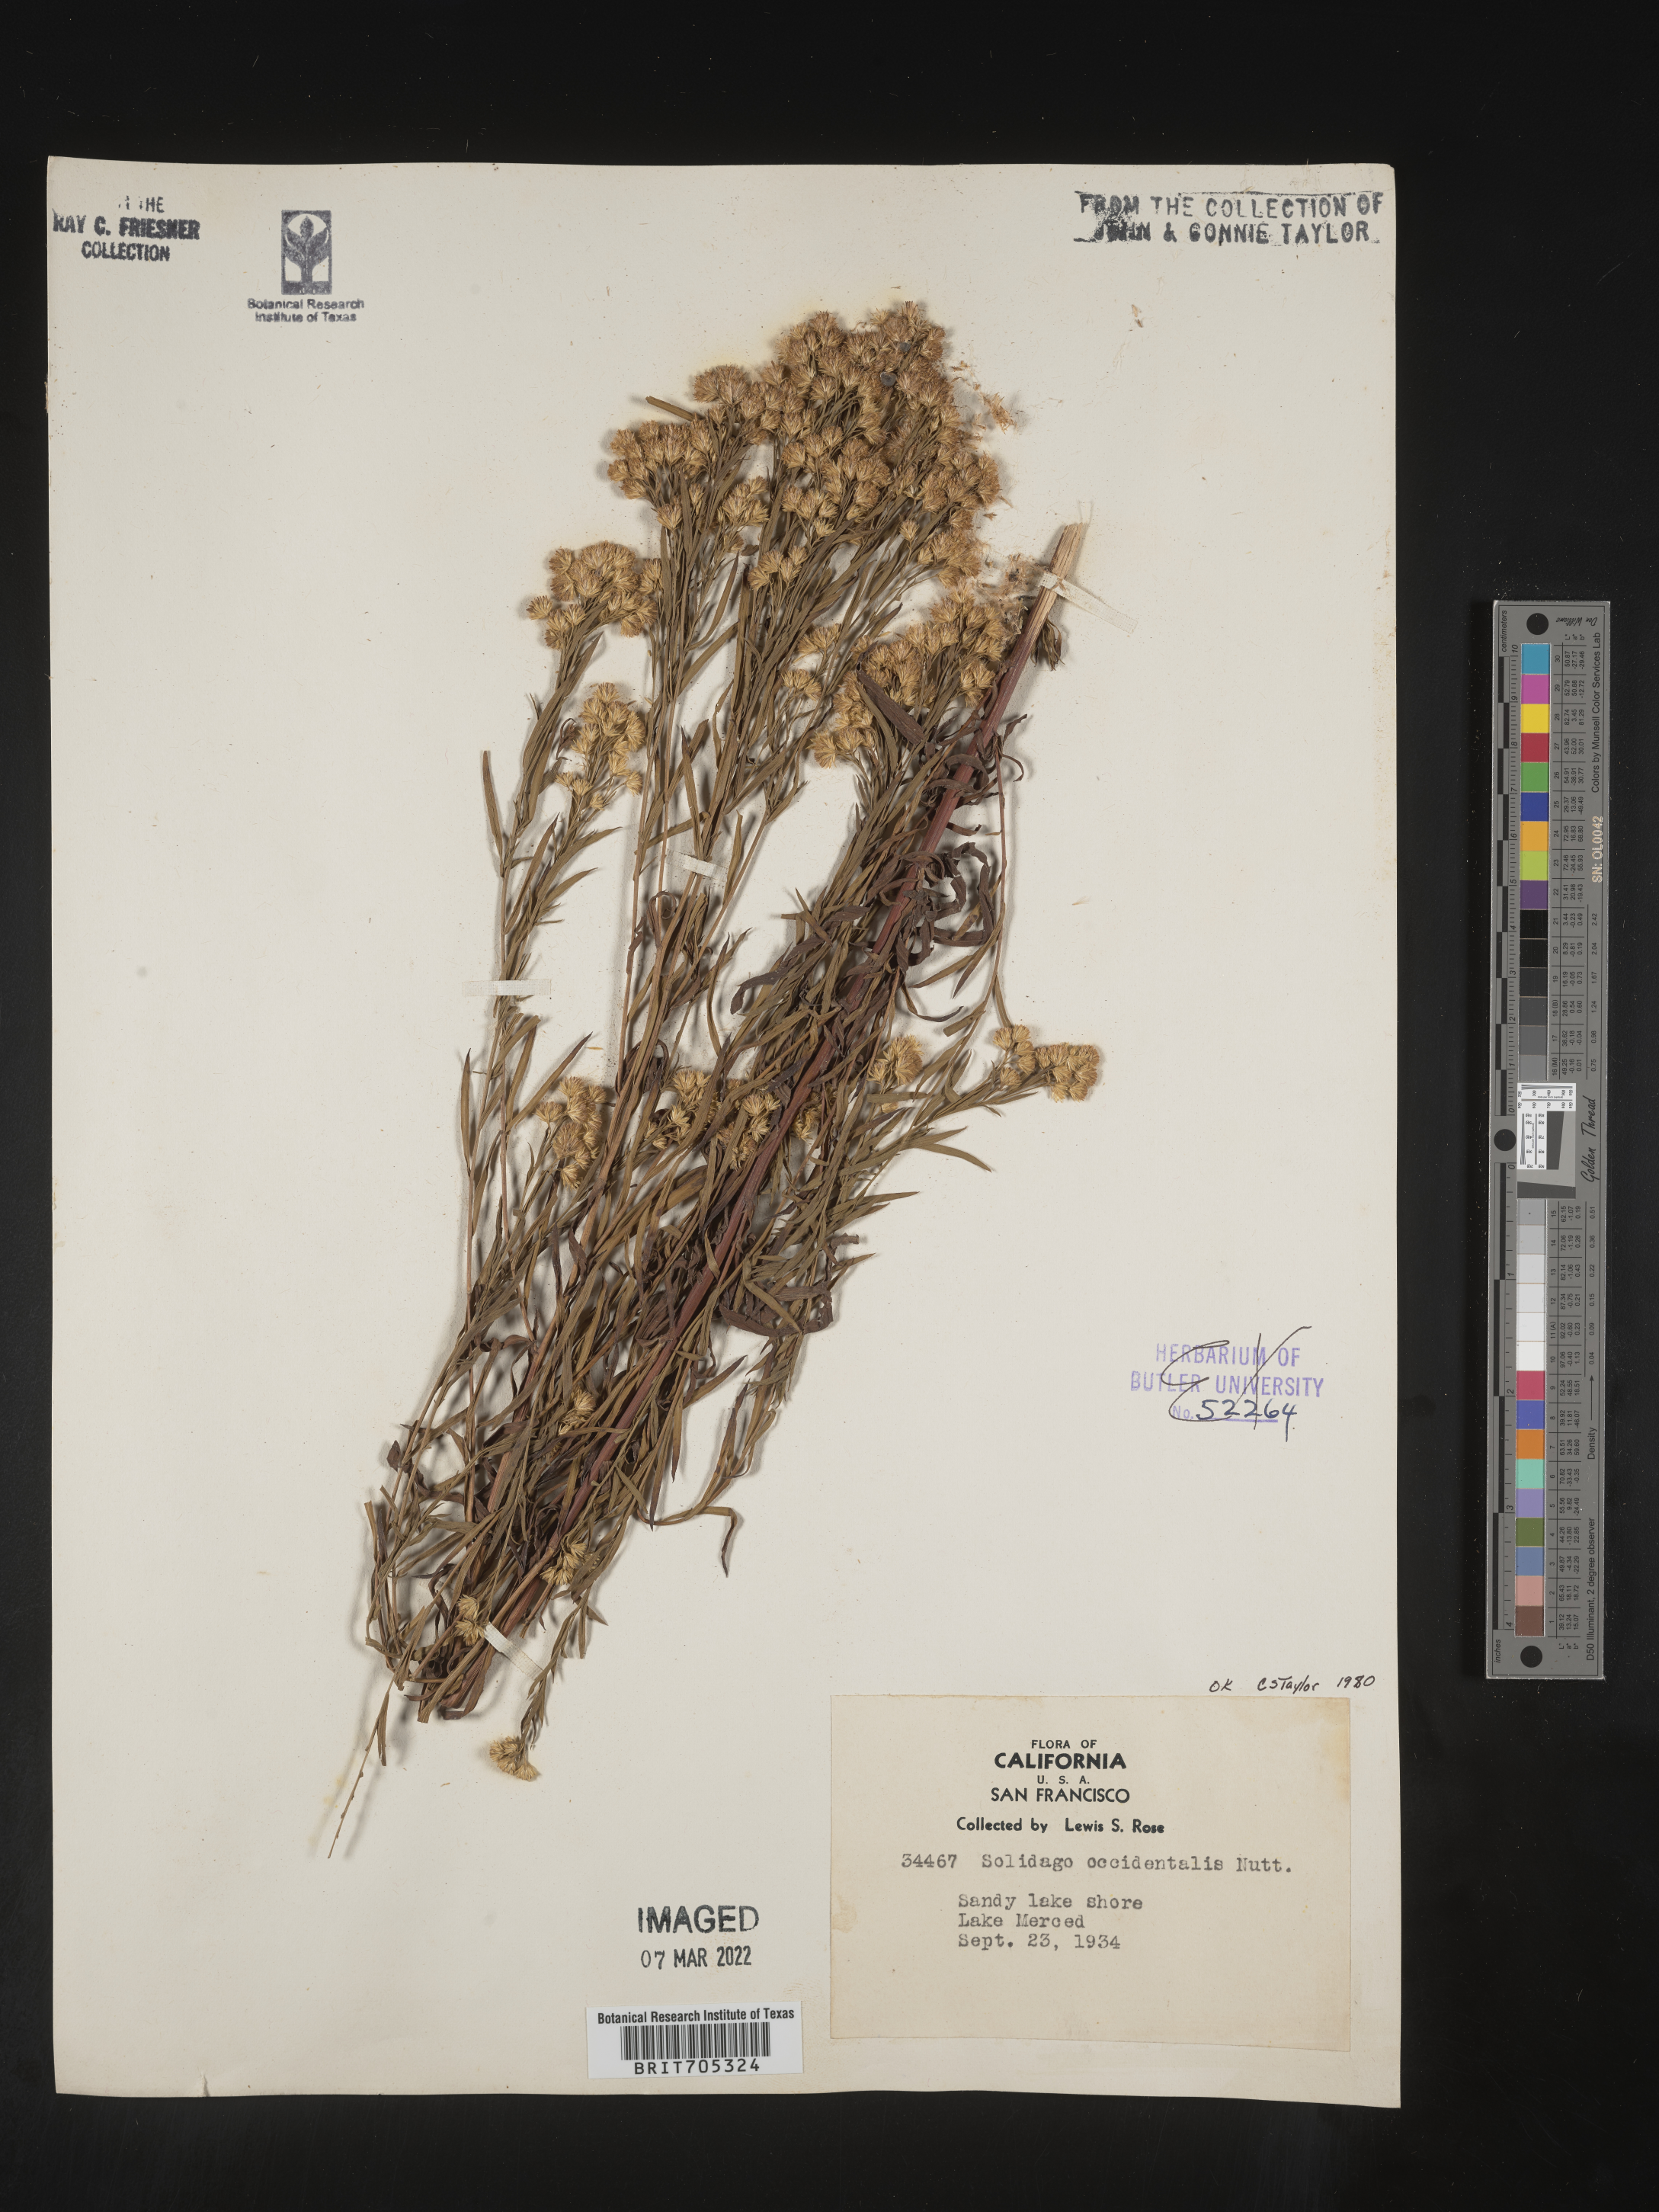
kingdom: Plantae
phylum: Tracheophyta
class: Magnoliopsida
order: Asterales
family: Asteraceae
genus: Euthamia
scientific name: Euthamia occidentalis
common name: Western goldentop
